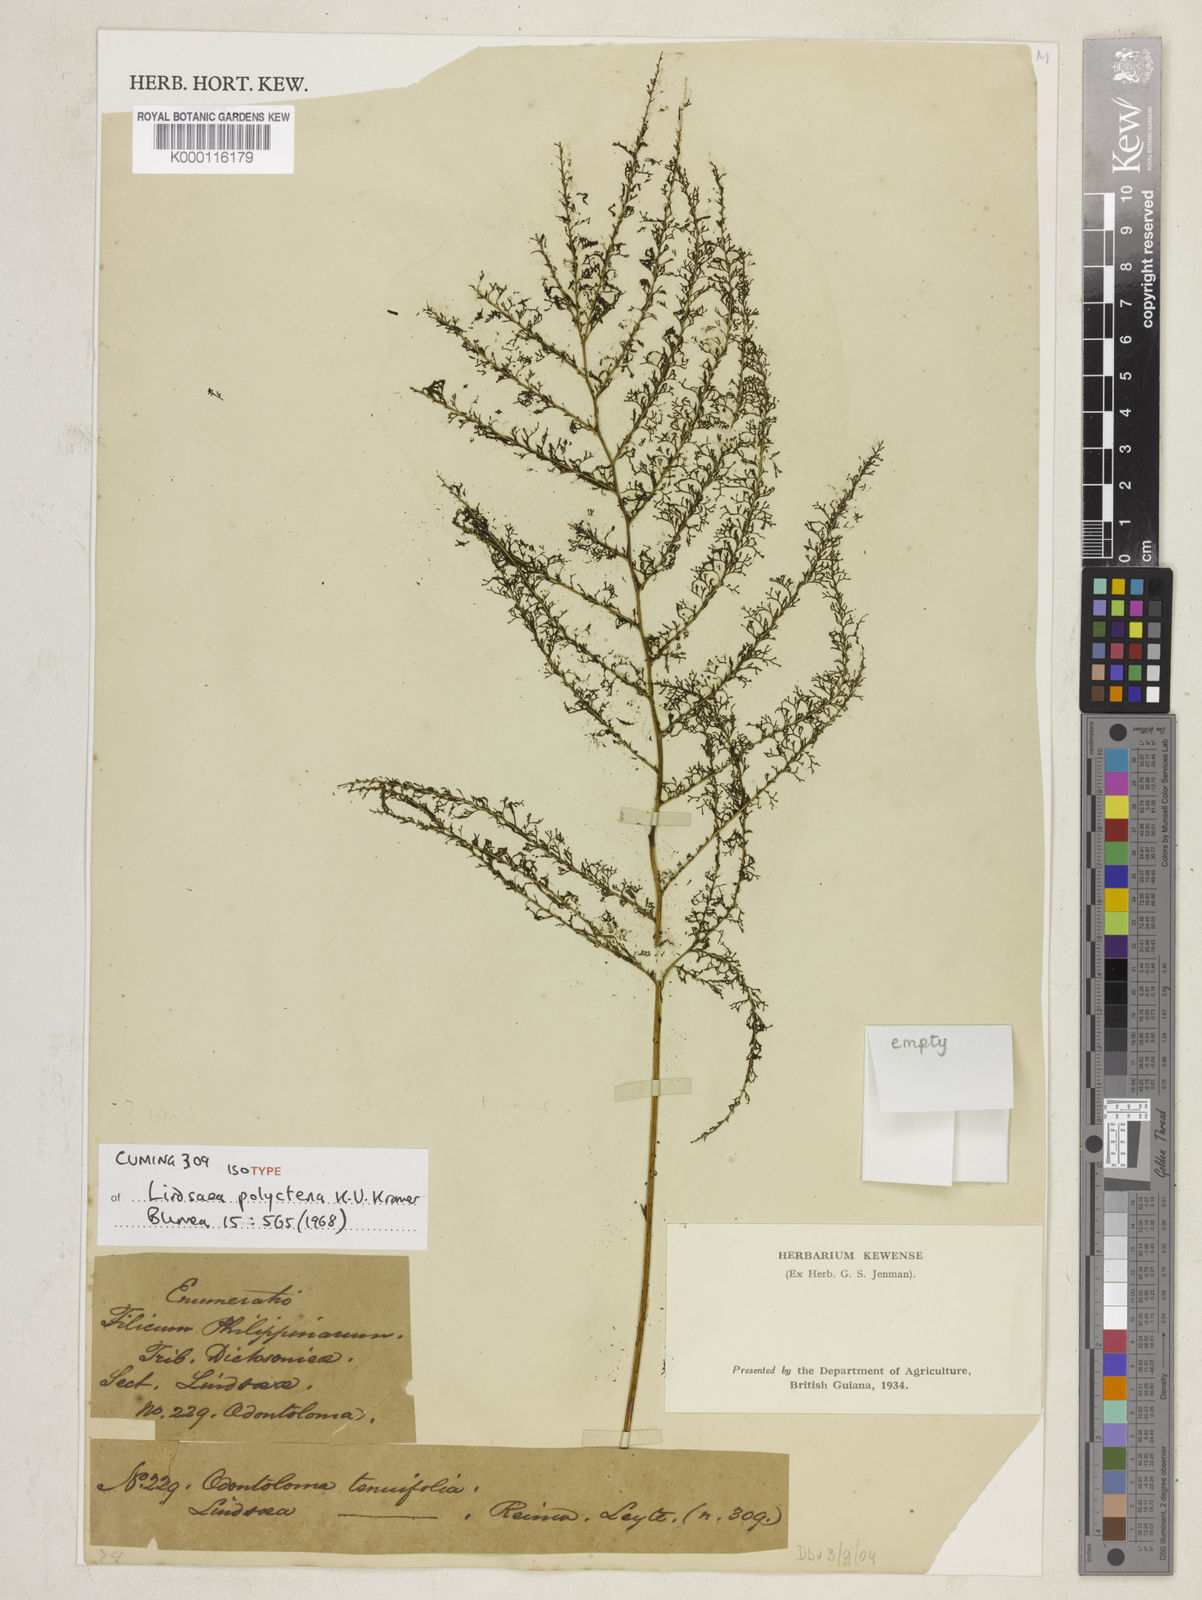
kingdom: Plantae
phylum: Tracheophyta
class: Polypodiopsida
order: Polypodiales
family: Lindsaeaceae
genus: Lindsaea
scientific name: Lindsaea tenuifolia
